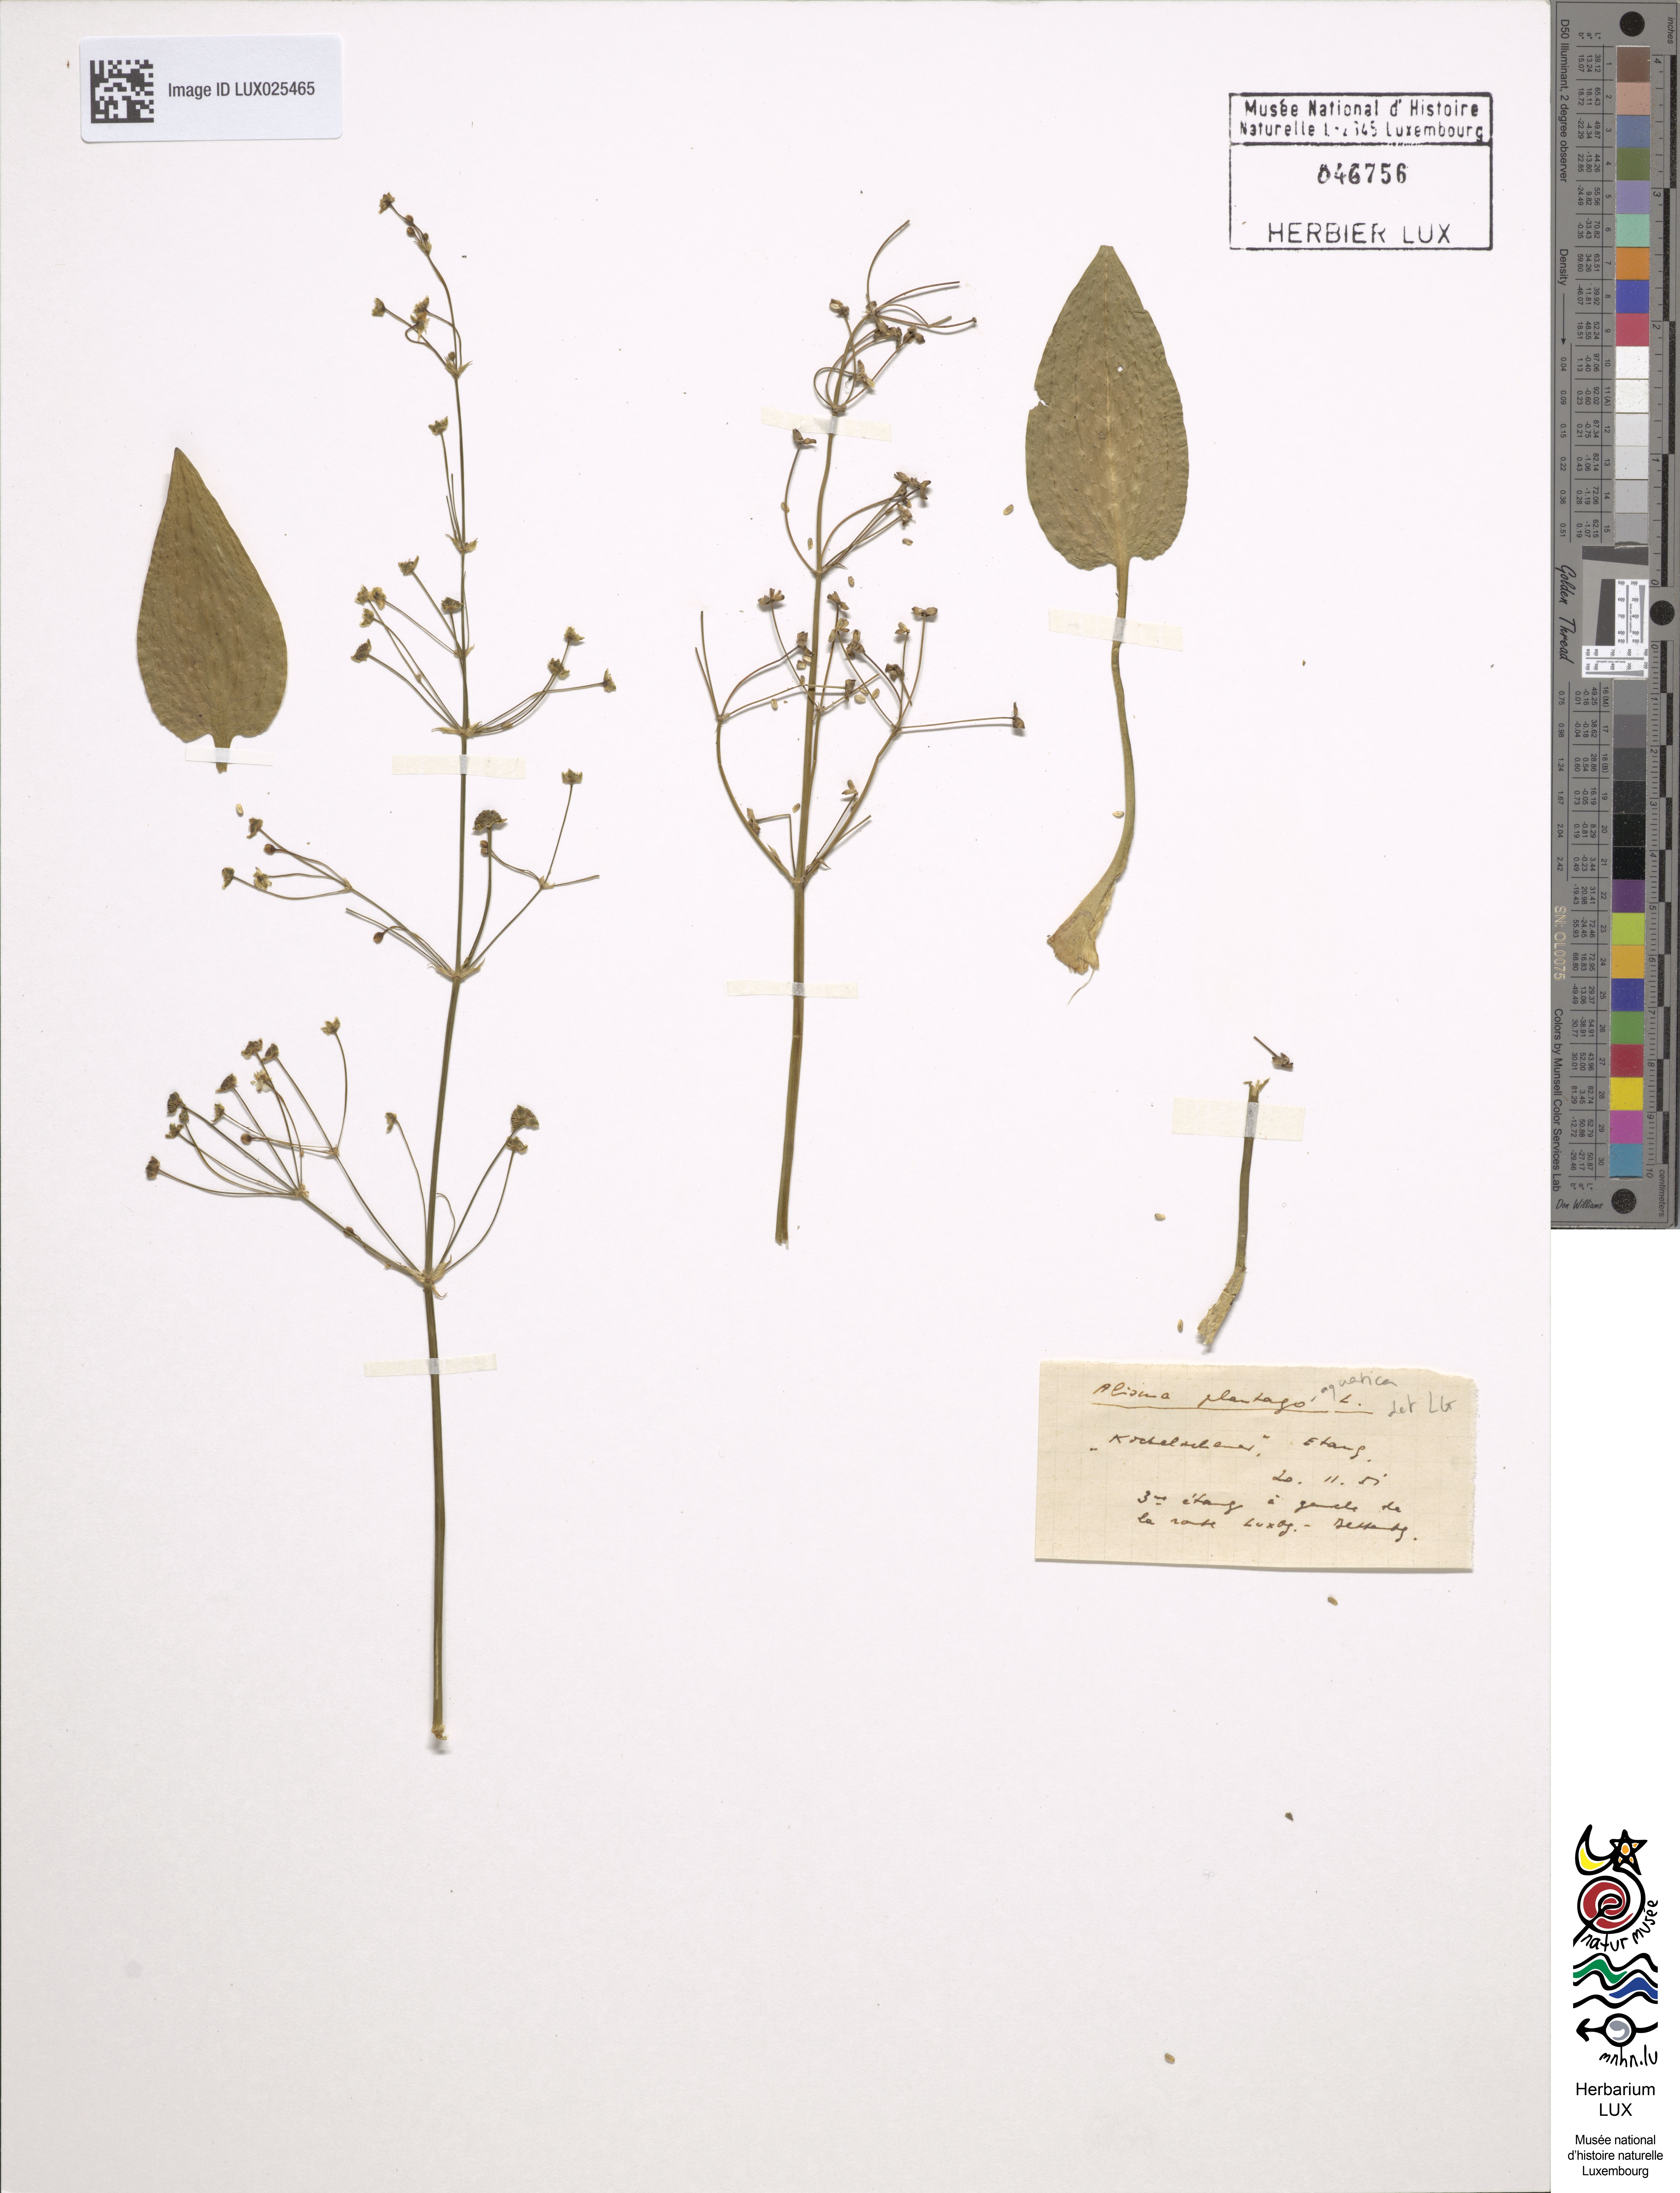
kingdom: Plantae
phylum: Tracheophyta
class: Liliopsida
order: Alismatales
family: Alismataceae
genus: Alisma
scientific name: Alisma plantago-aquatica
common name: Water-plantain
